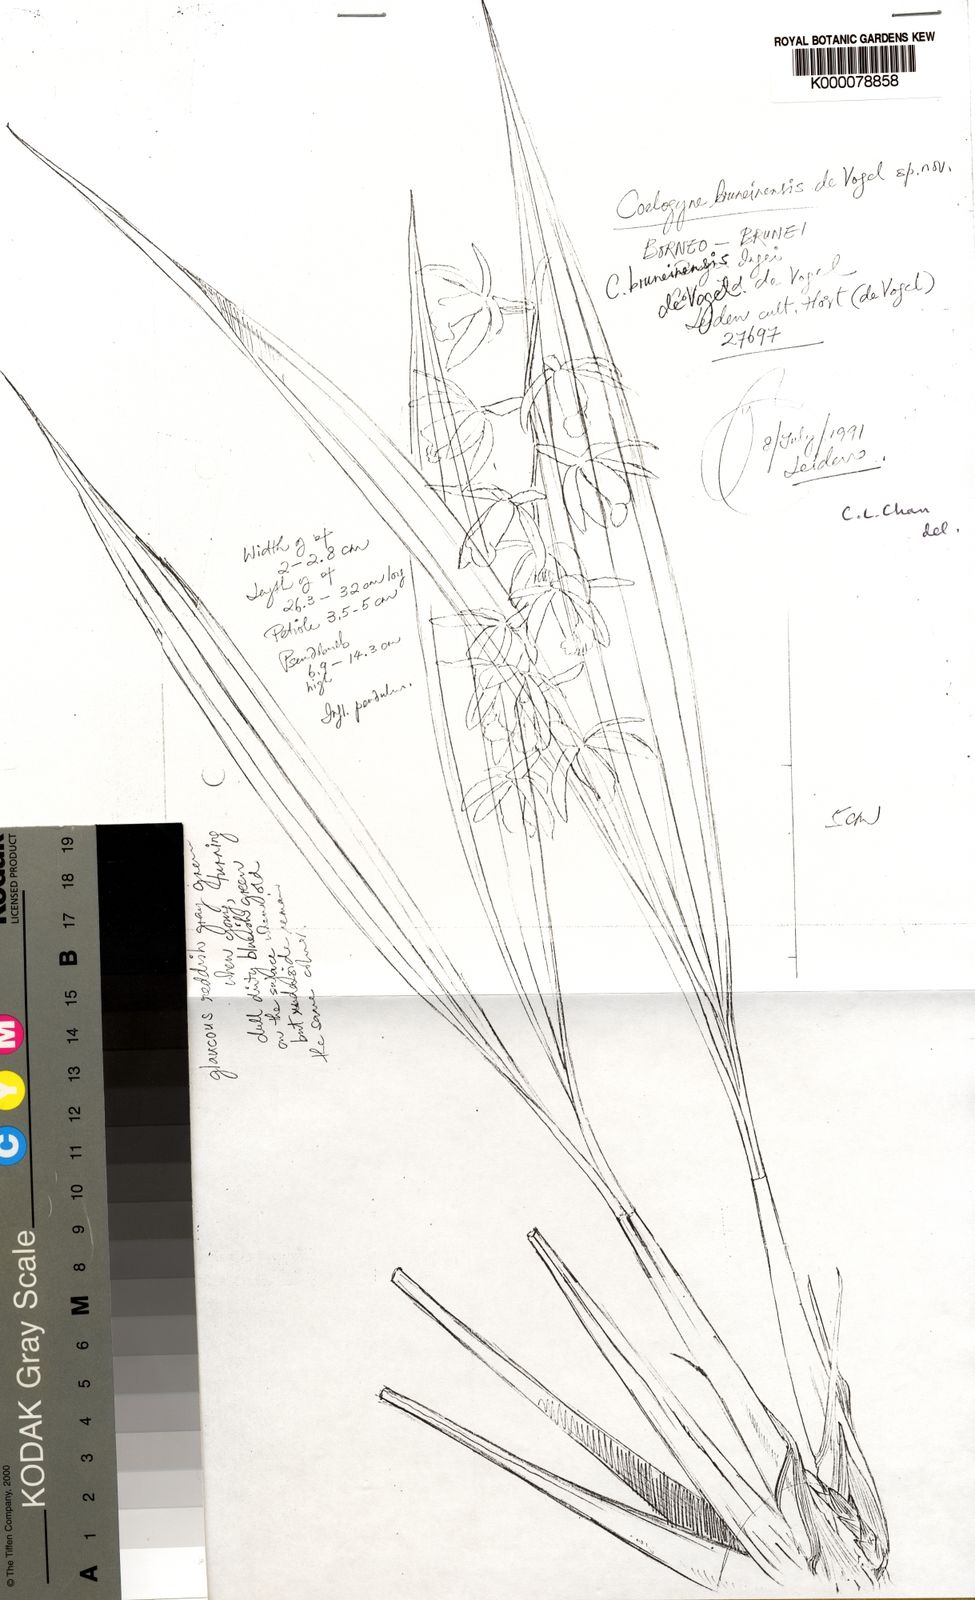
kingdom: Plantae
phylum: Tracheophyta
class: Liliopsida
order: Asparagales
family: Orchidaceae
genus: Coelogyne
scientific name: Coelogyne bruneiensis
